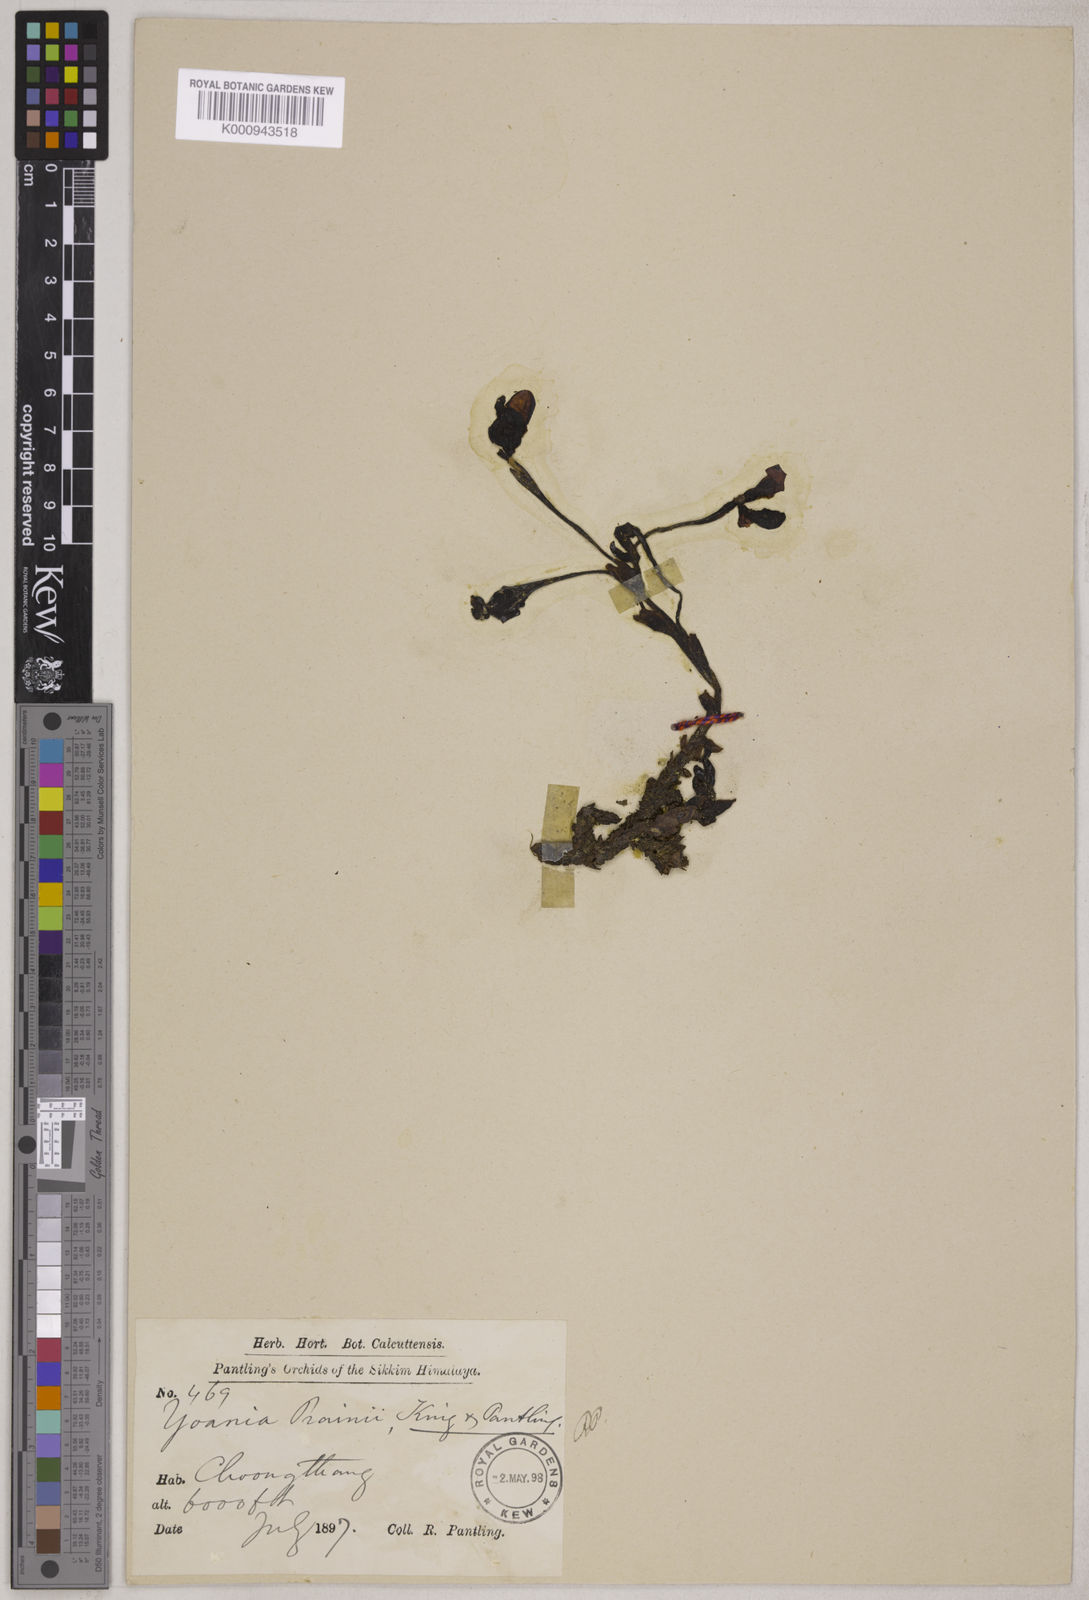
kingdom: Plantae
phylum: Tracheophyta
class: Liliopsida
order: Asparagales
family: Orchidaceae
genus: Yoania
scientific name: Yoania prainii
